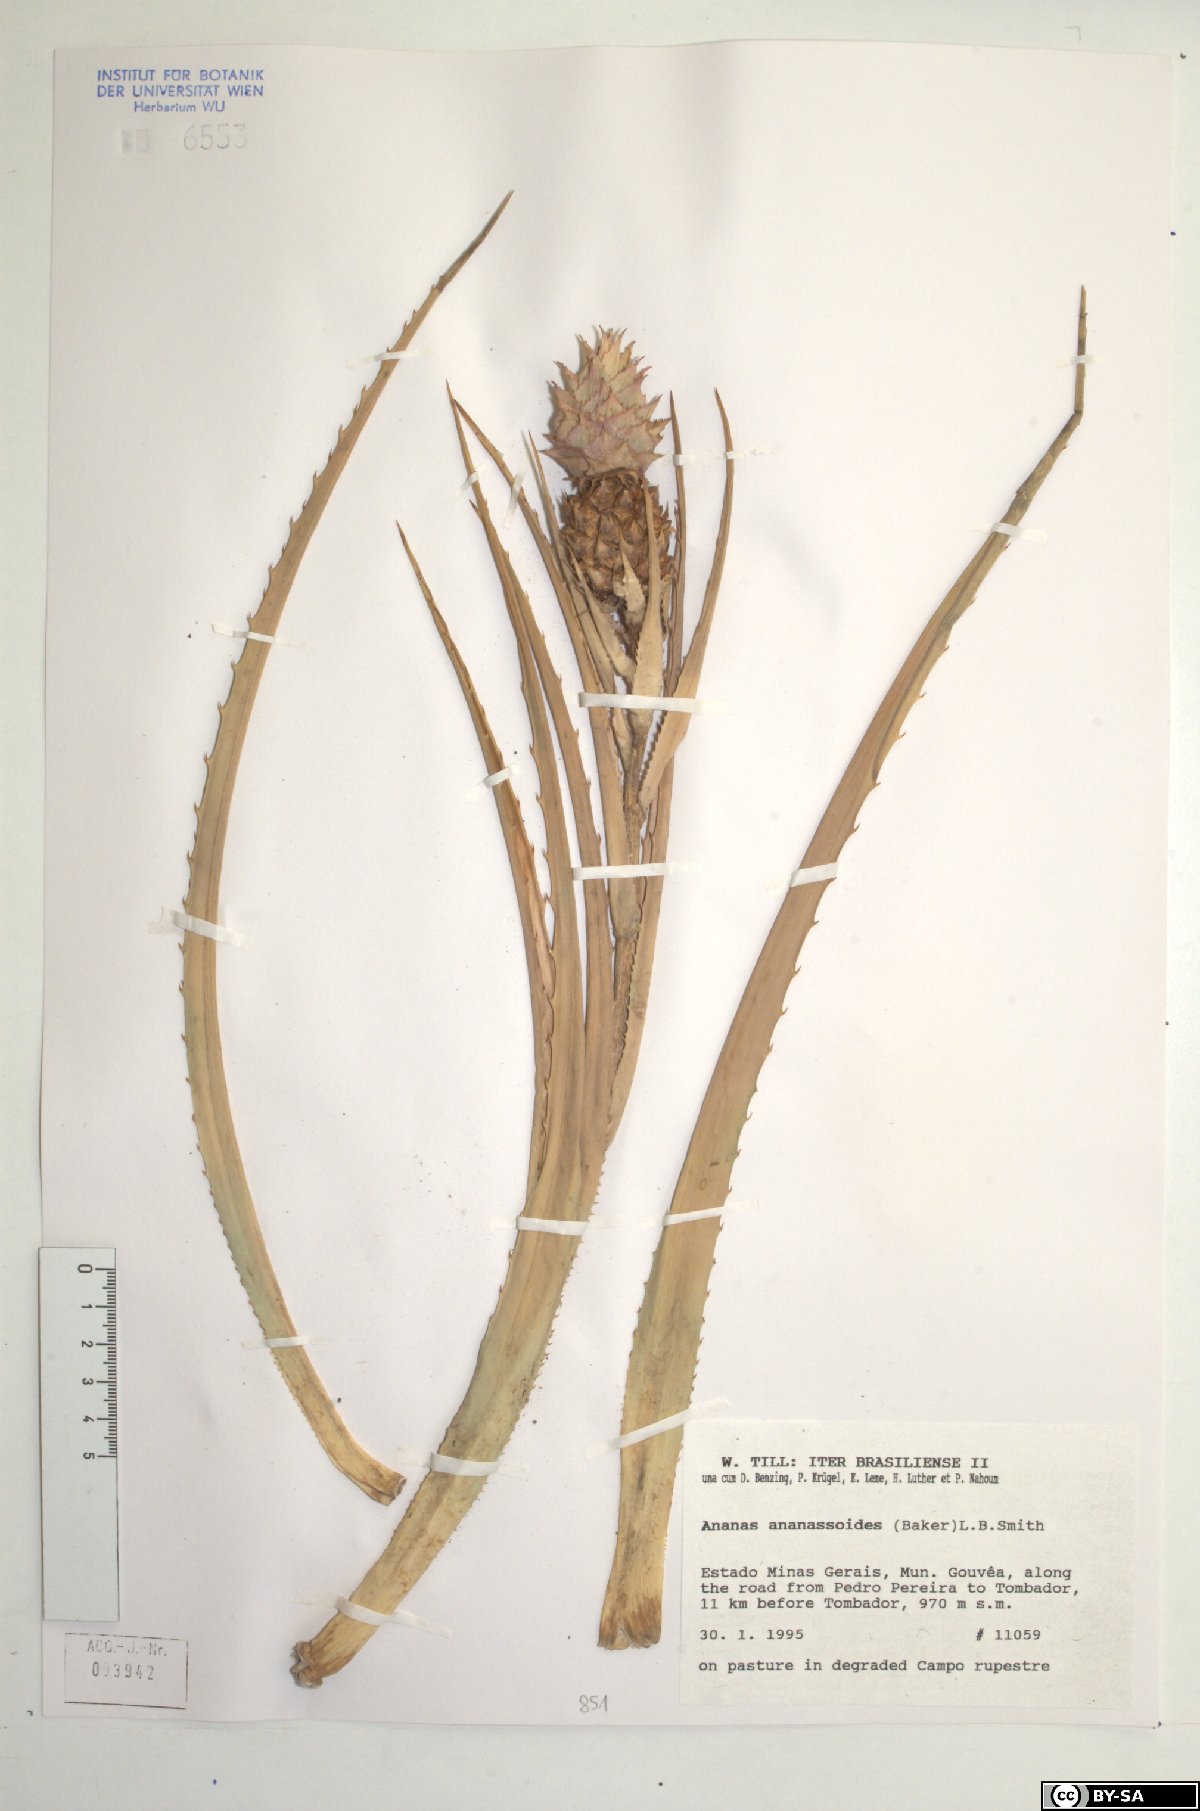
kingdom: Plantae
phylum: Tracheophyta
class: Liliopsida
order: Poales
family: Bromeliaceae
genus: Ananas
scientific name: Ananas comosus
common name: Pineapple
